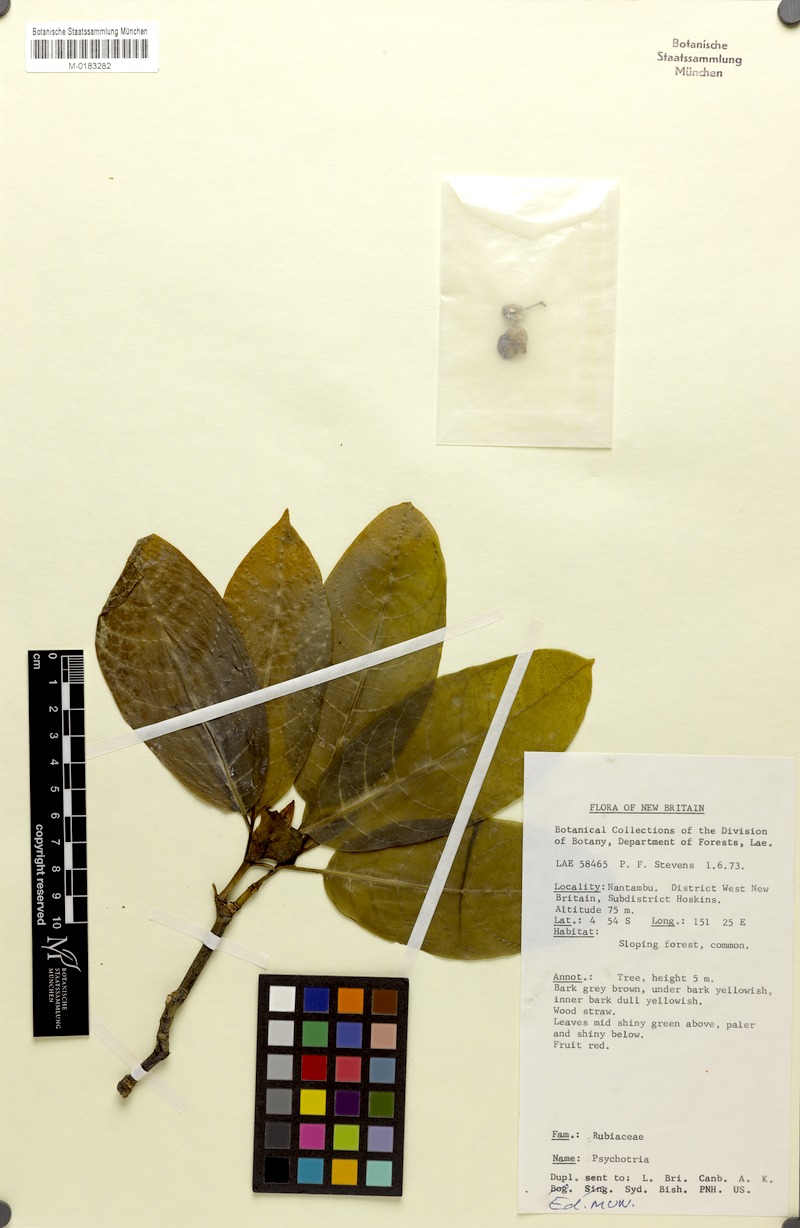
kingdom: Plantae
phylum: Tracheophyta
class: Magnoliopsida
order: Gentianales
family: Rubiaceae
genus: Eumachia
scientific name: Eumachia damasiana
